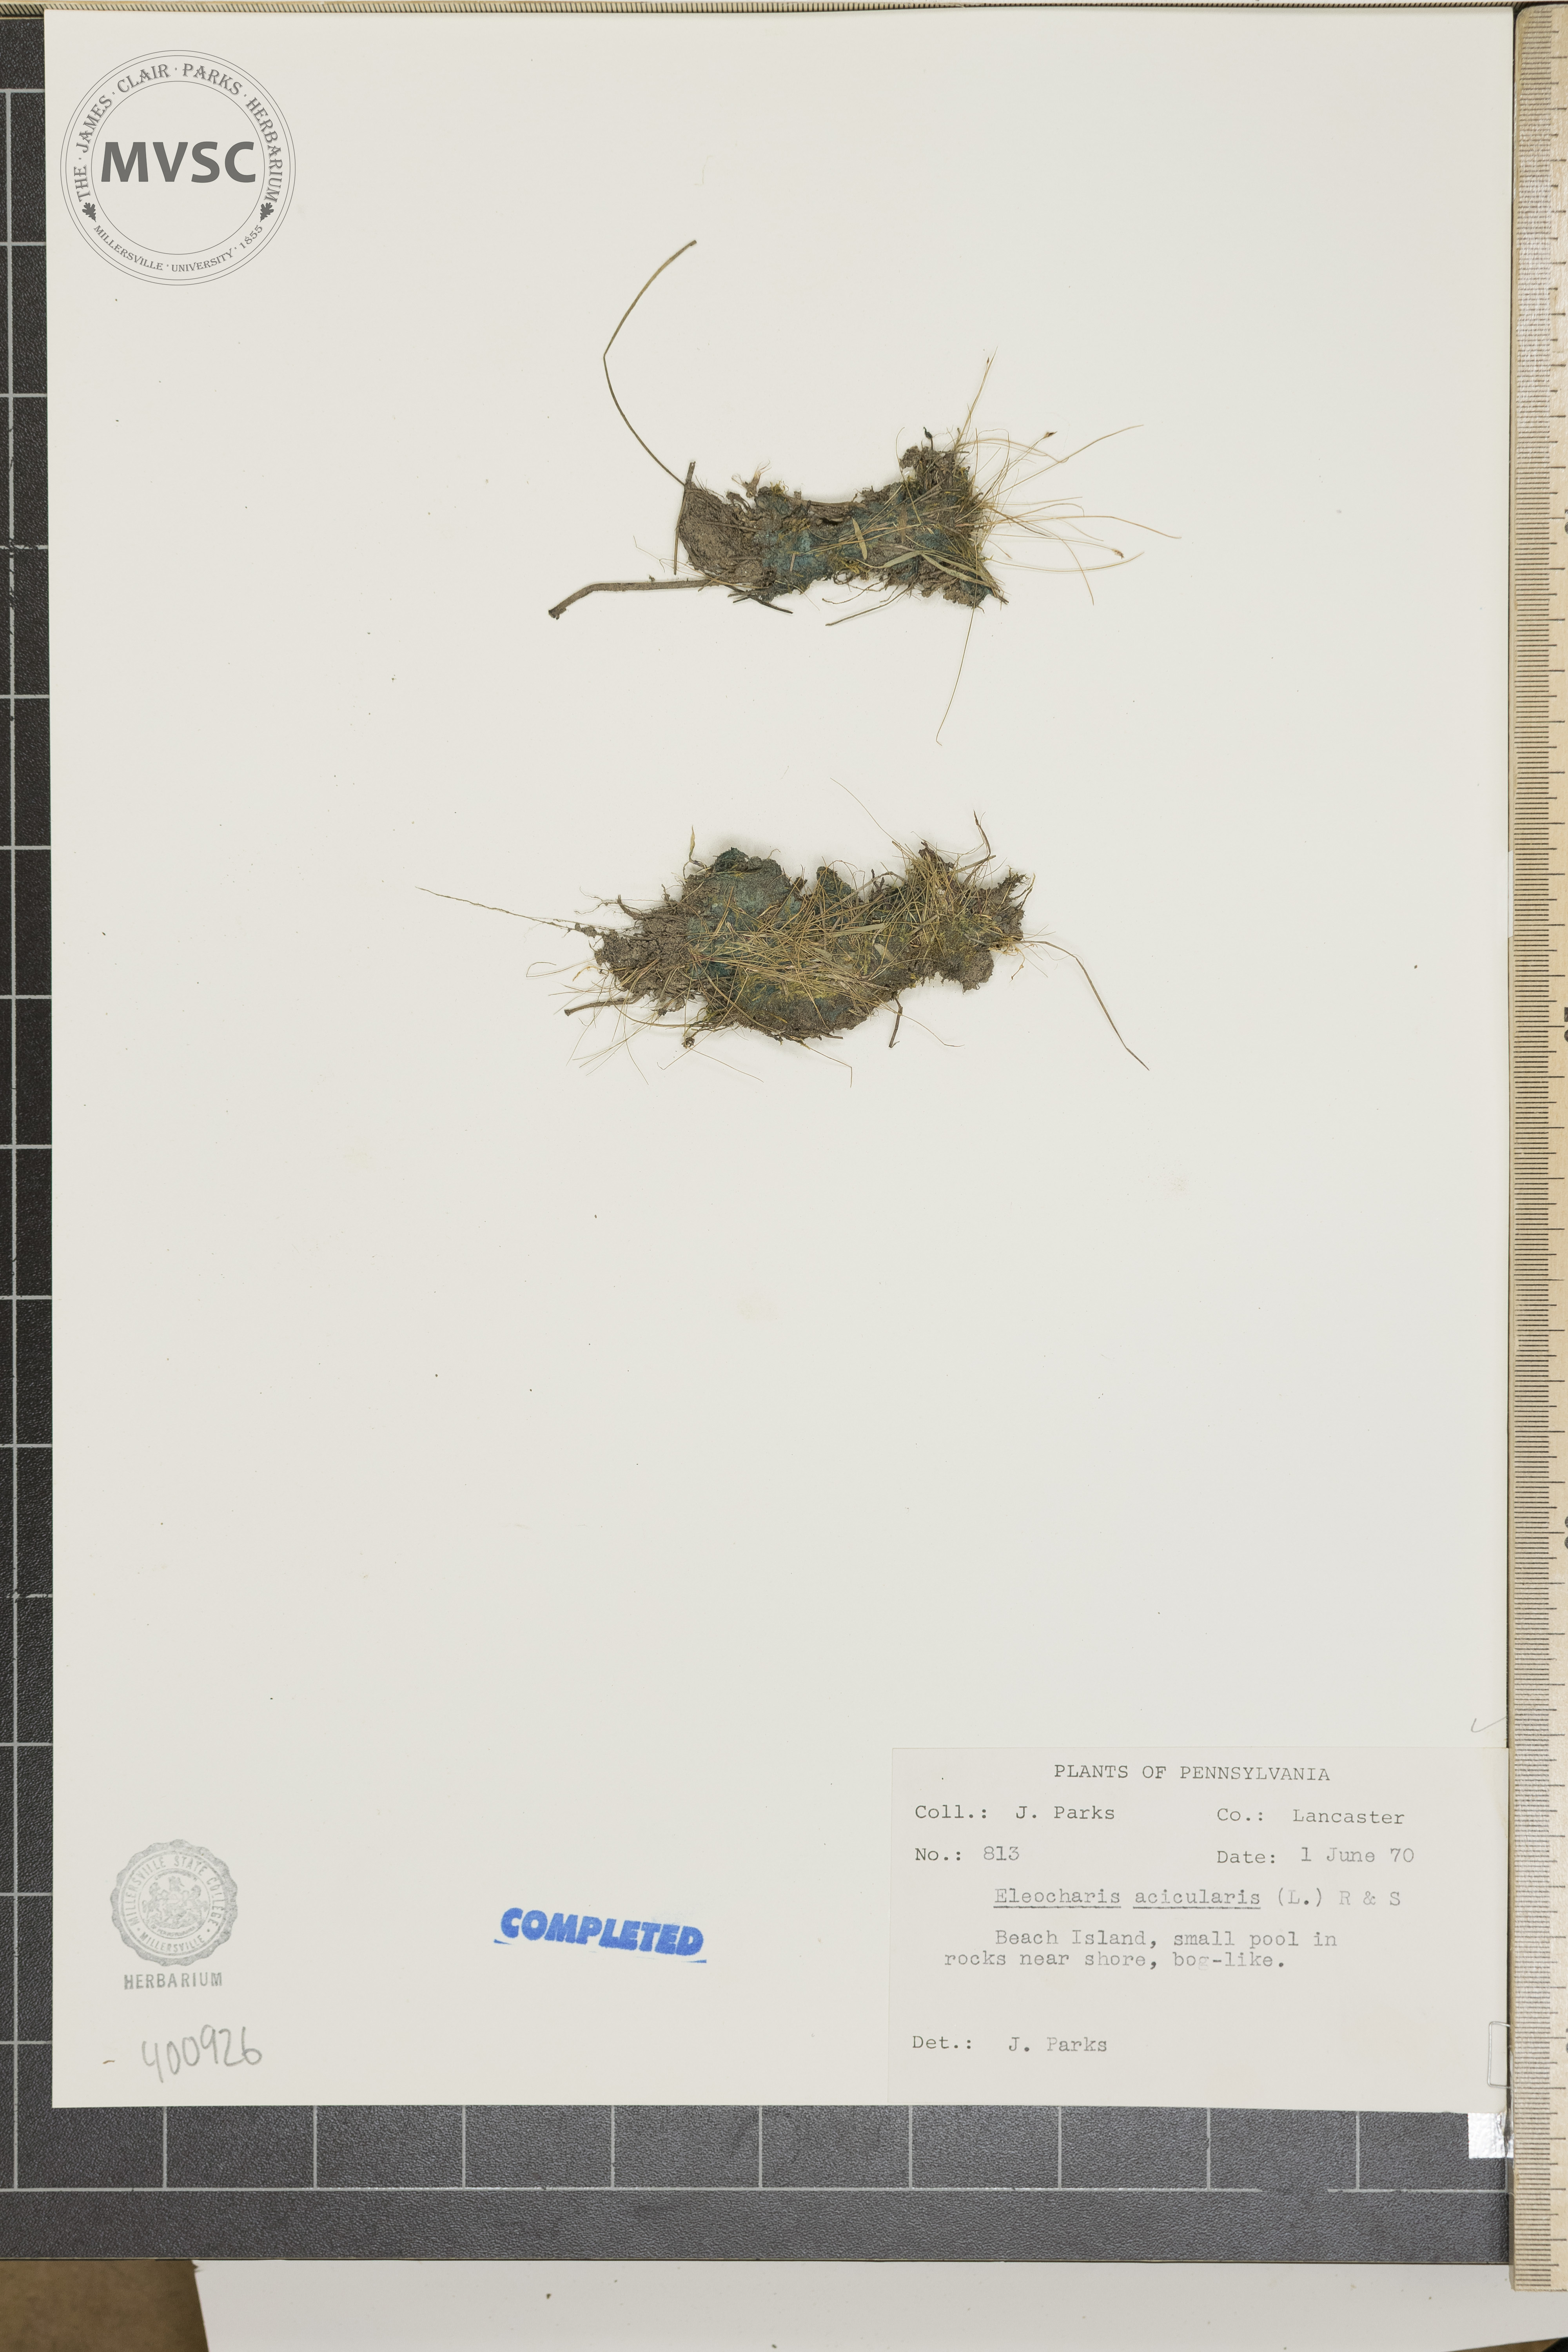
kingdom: Plantae
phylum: Tracheophyta
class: Liliopsida
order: Poales
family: Cyperaceae
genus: Eleocharis
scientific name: Eleocharis acicularis
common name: Needle spike-rush
